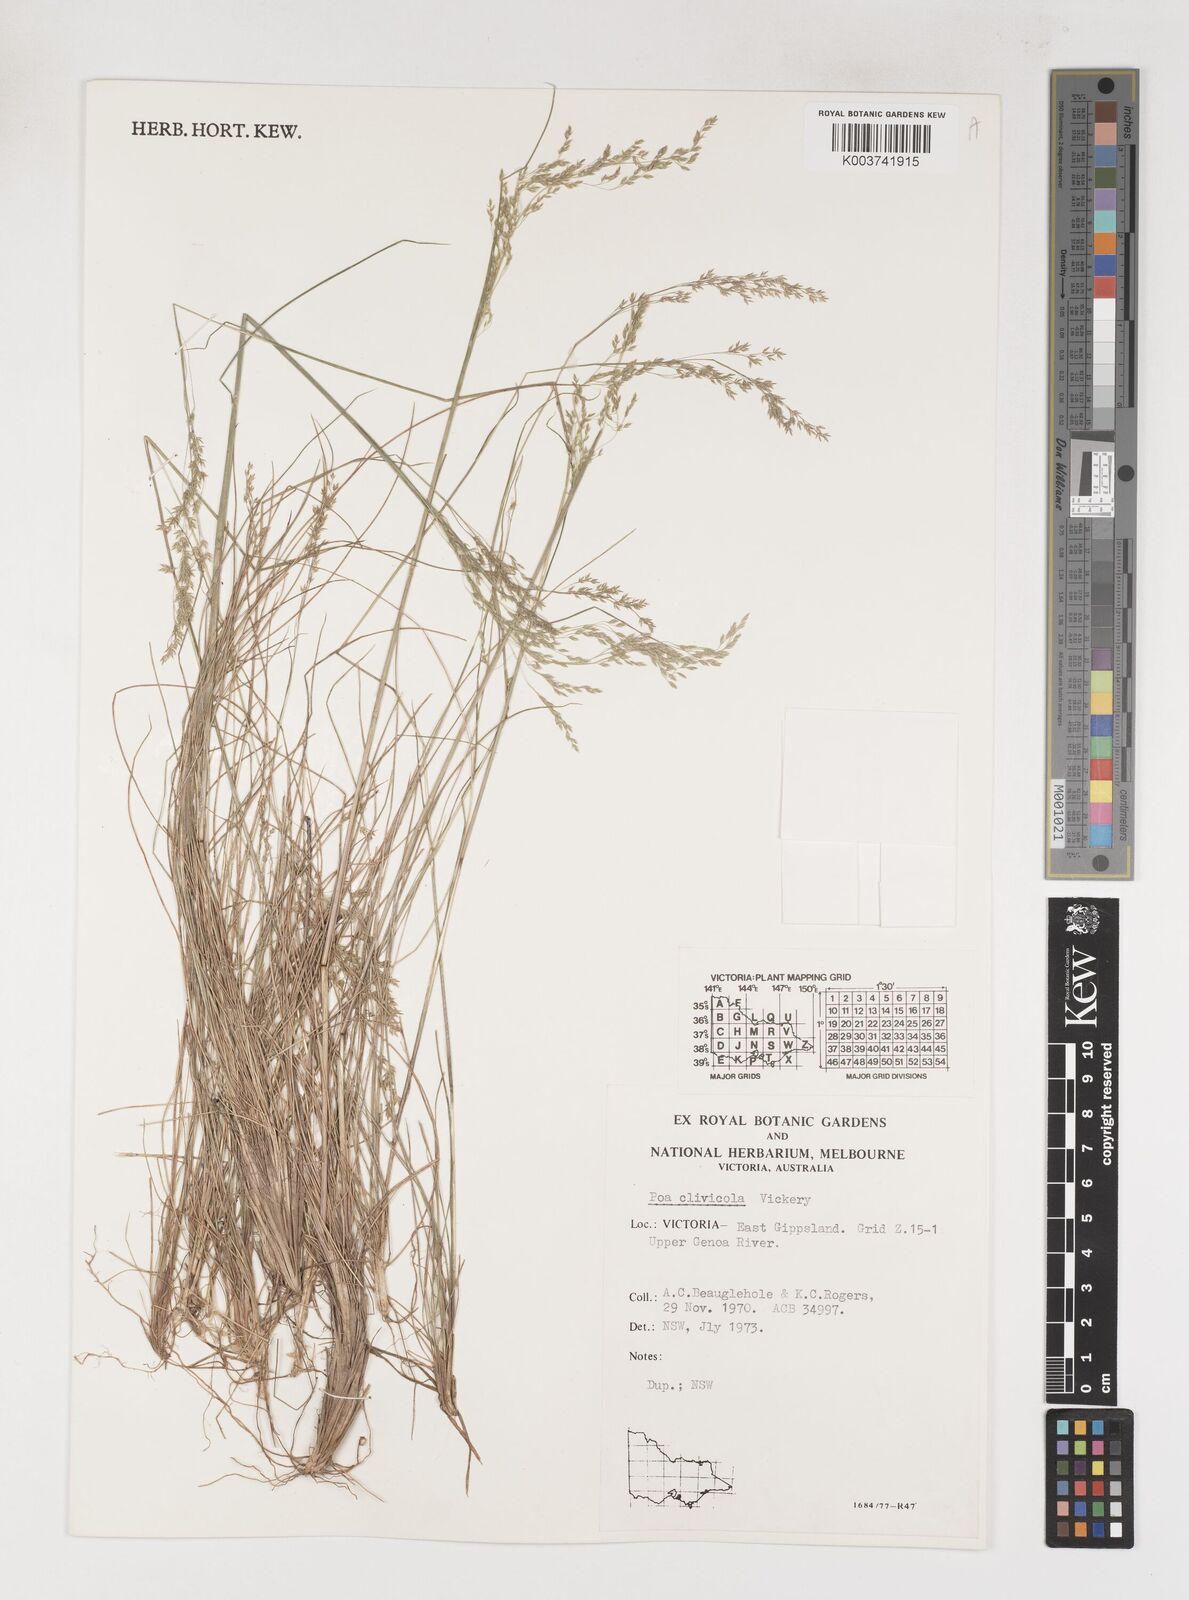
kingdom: Plantae
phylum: Tracheophyta
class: Liliopsida
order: Poales
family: Poaceae
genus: Poa
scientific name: Poa clivicola
